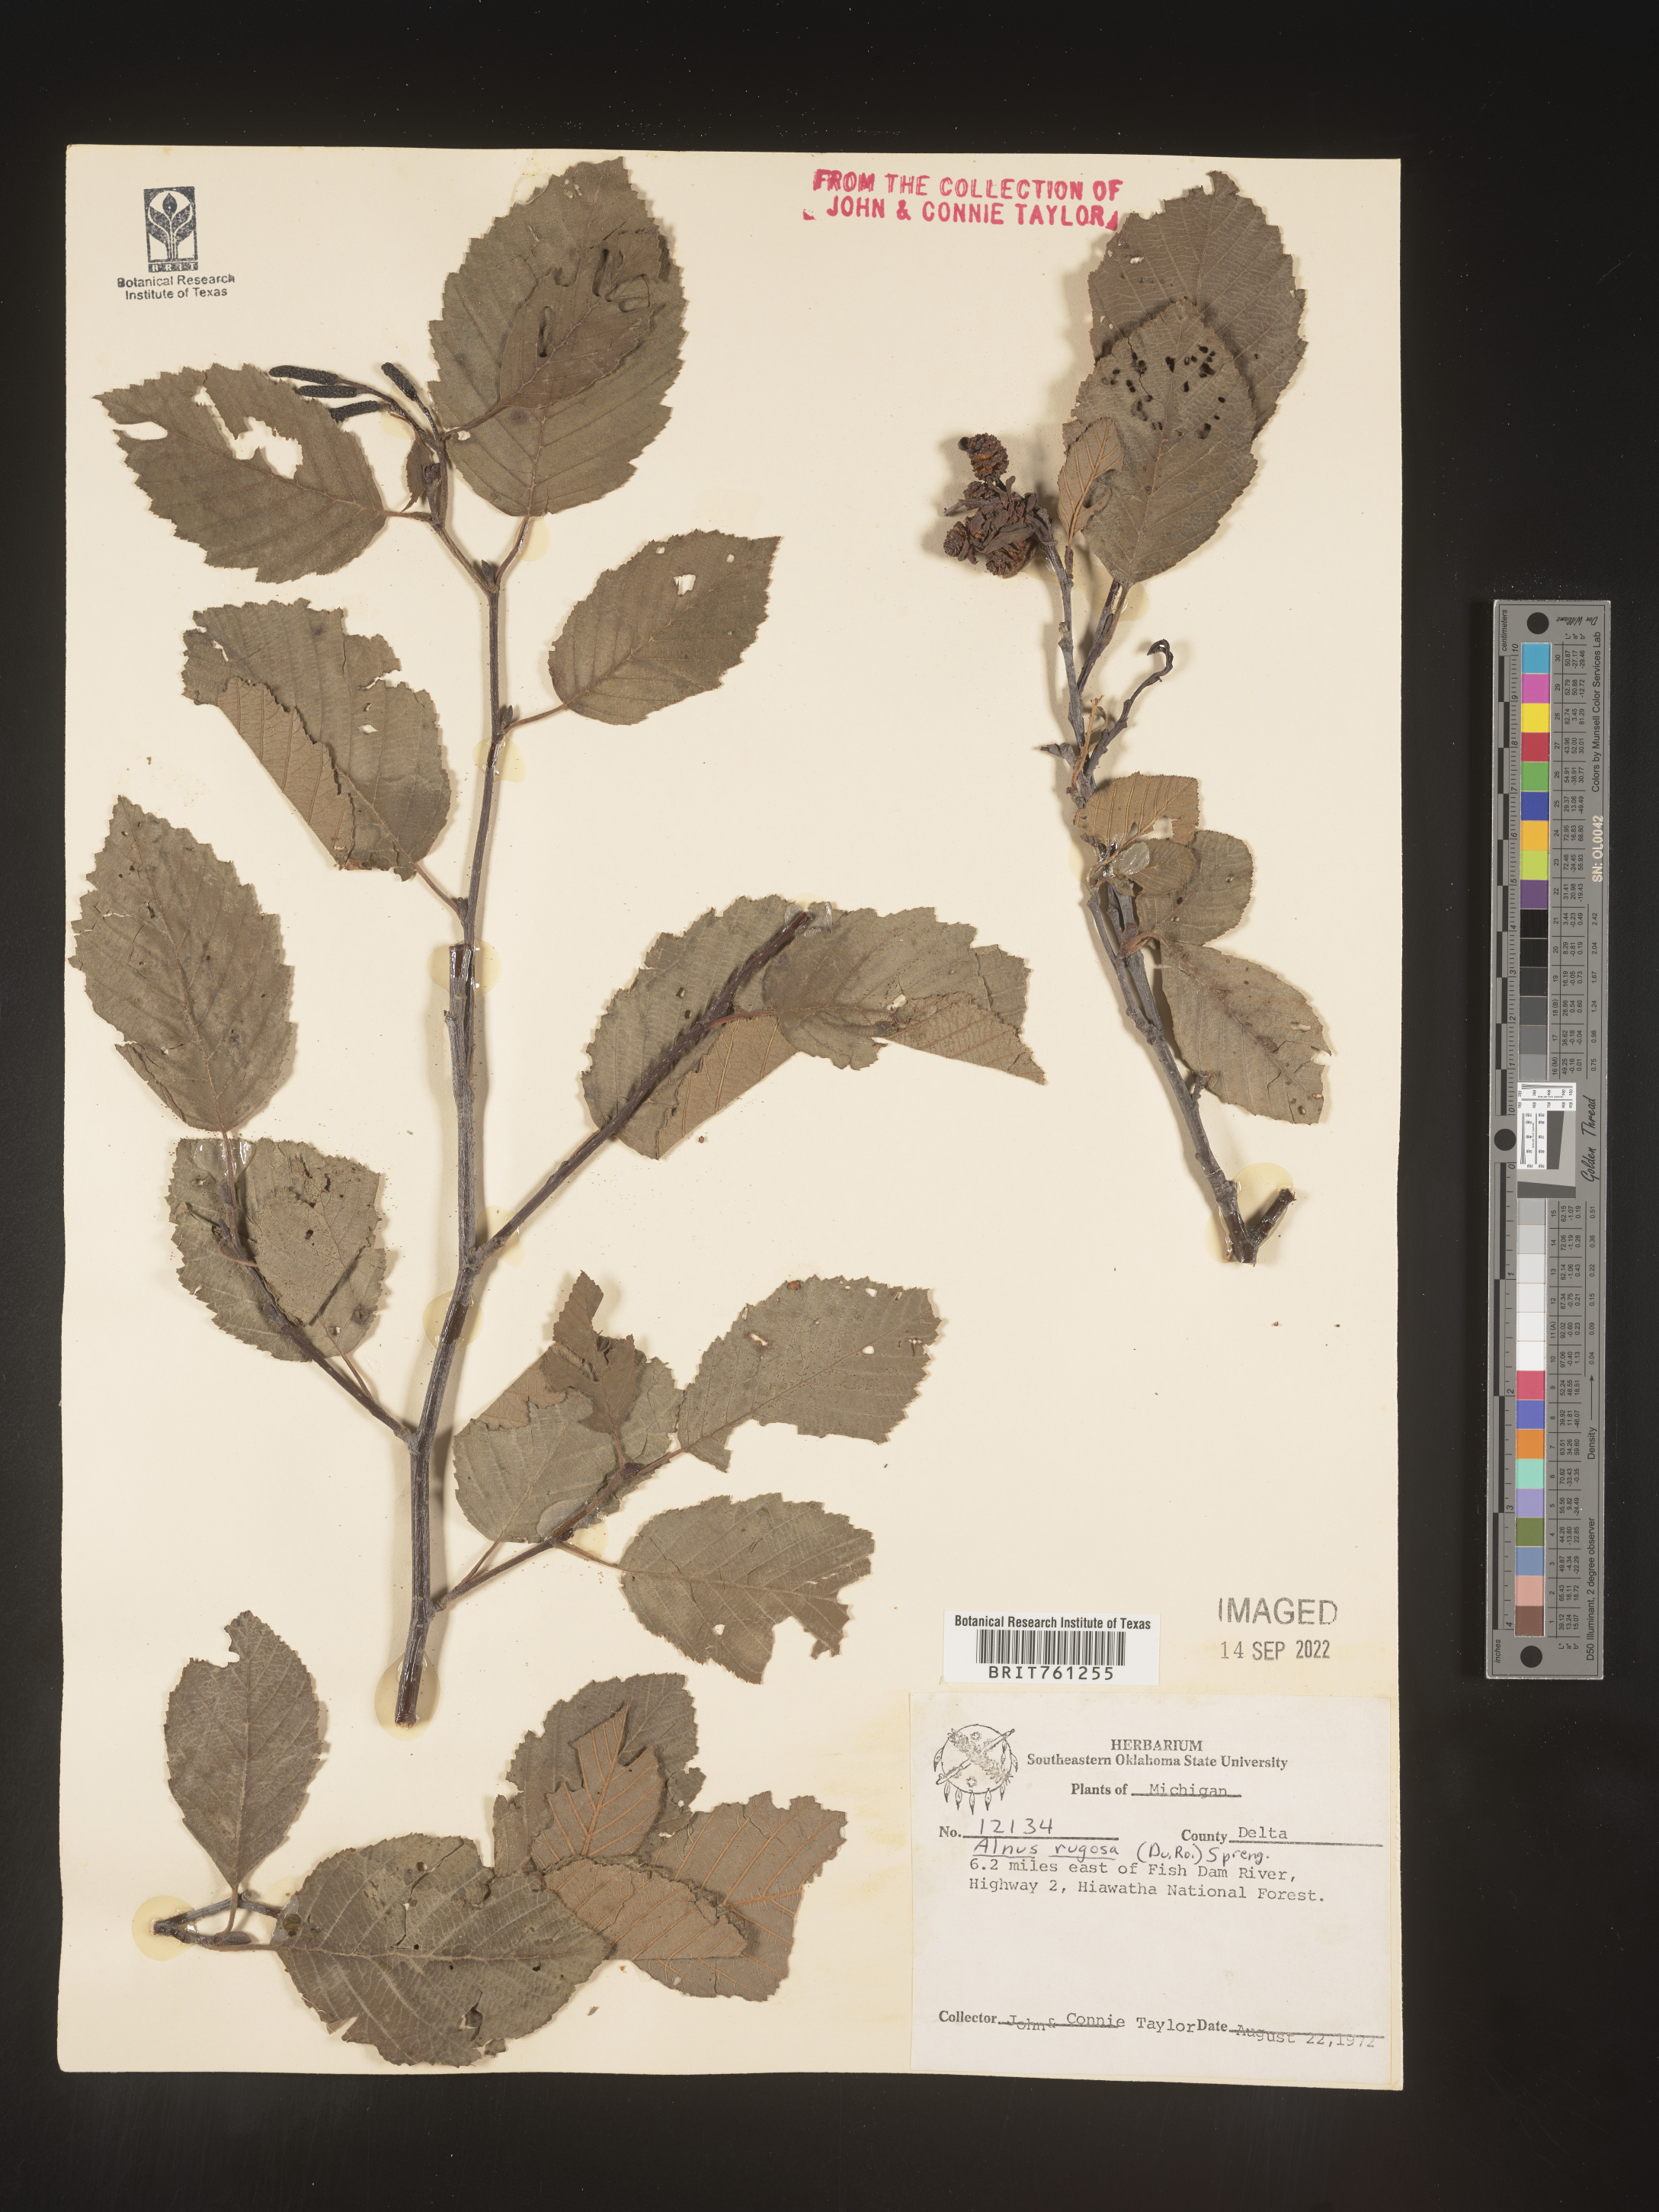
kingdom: Plantae
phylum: Tracheophyta
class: Magnoliopsida
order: Fagales
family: Betulaceae
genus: Alnus
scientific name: Alnus incana
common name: Grey alder
